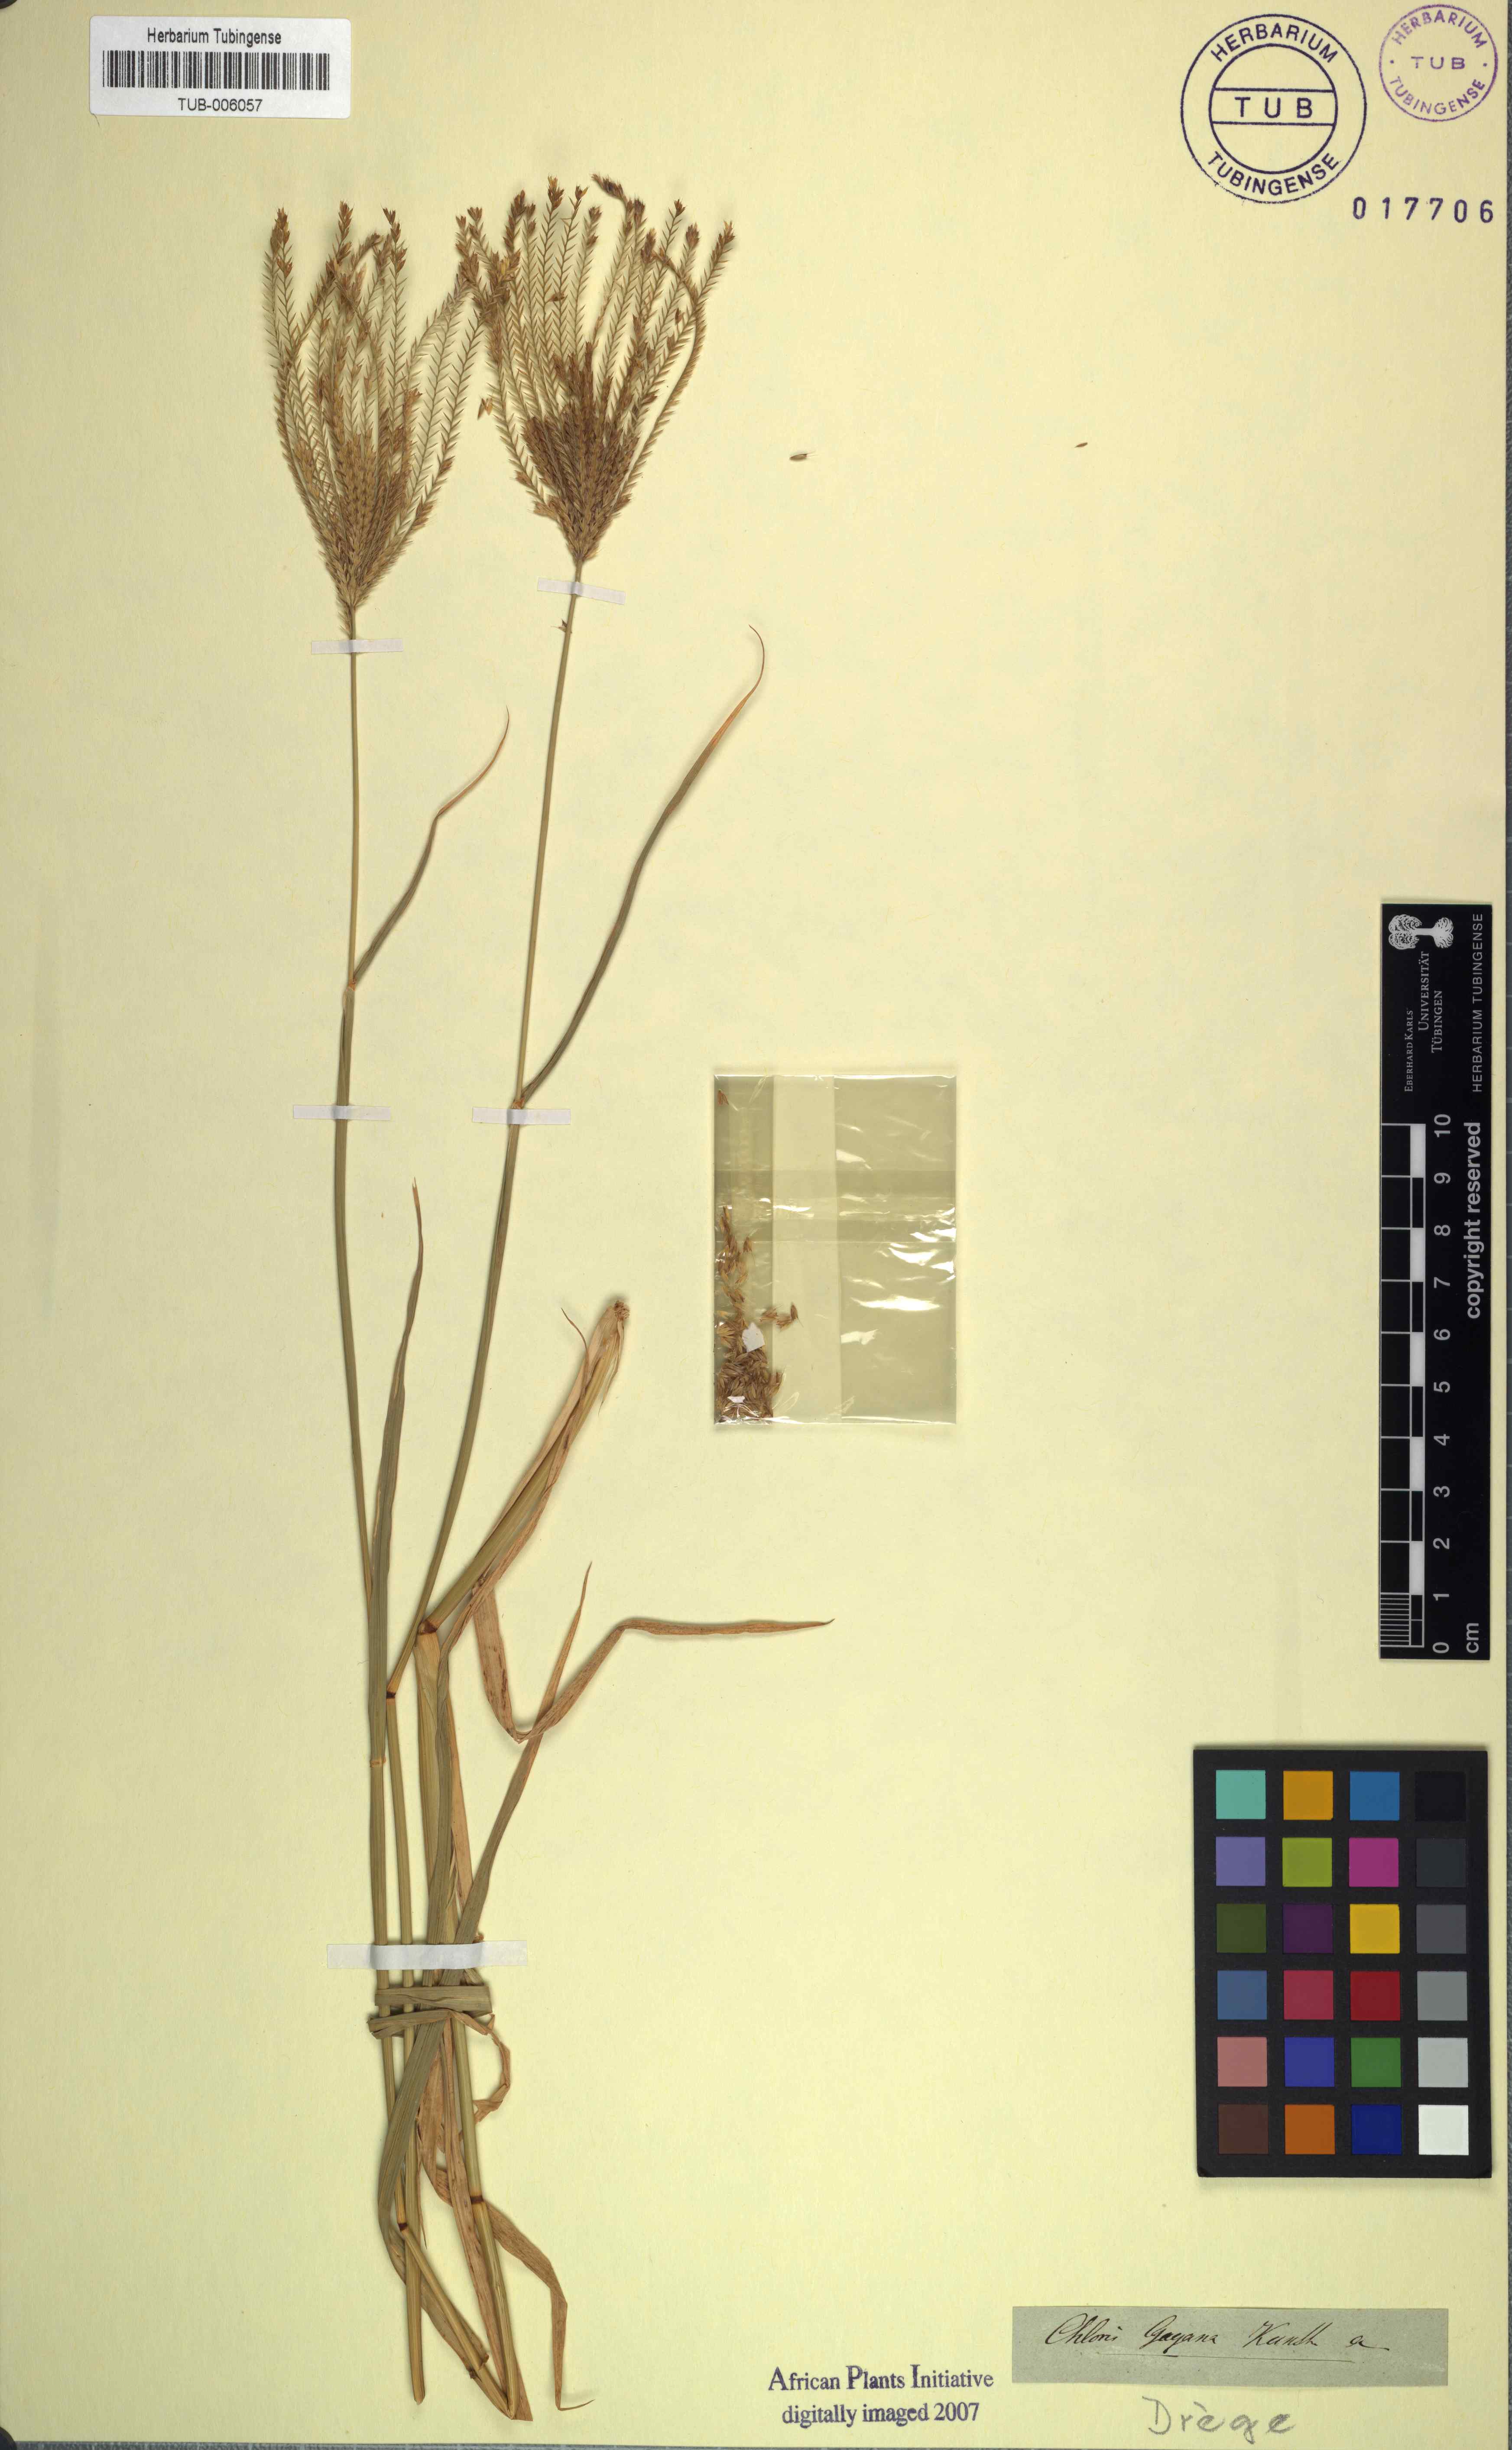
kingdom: Plantae
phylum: Tracheophyta
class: Liliopsida
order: Poales
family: Poaceae
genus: Chloris
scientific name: Chloris gayana
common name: Rhodes grass
